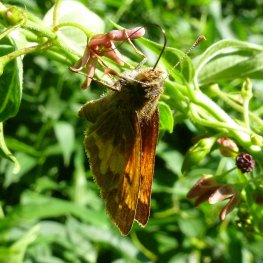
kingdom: Animalia
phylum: Arthropoda
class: Insecta
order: Lepidoptera
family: Hesperiidae
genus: Lon
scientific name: Lon hobomok
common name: Hobomok Skipper
